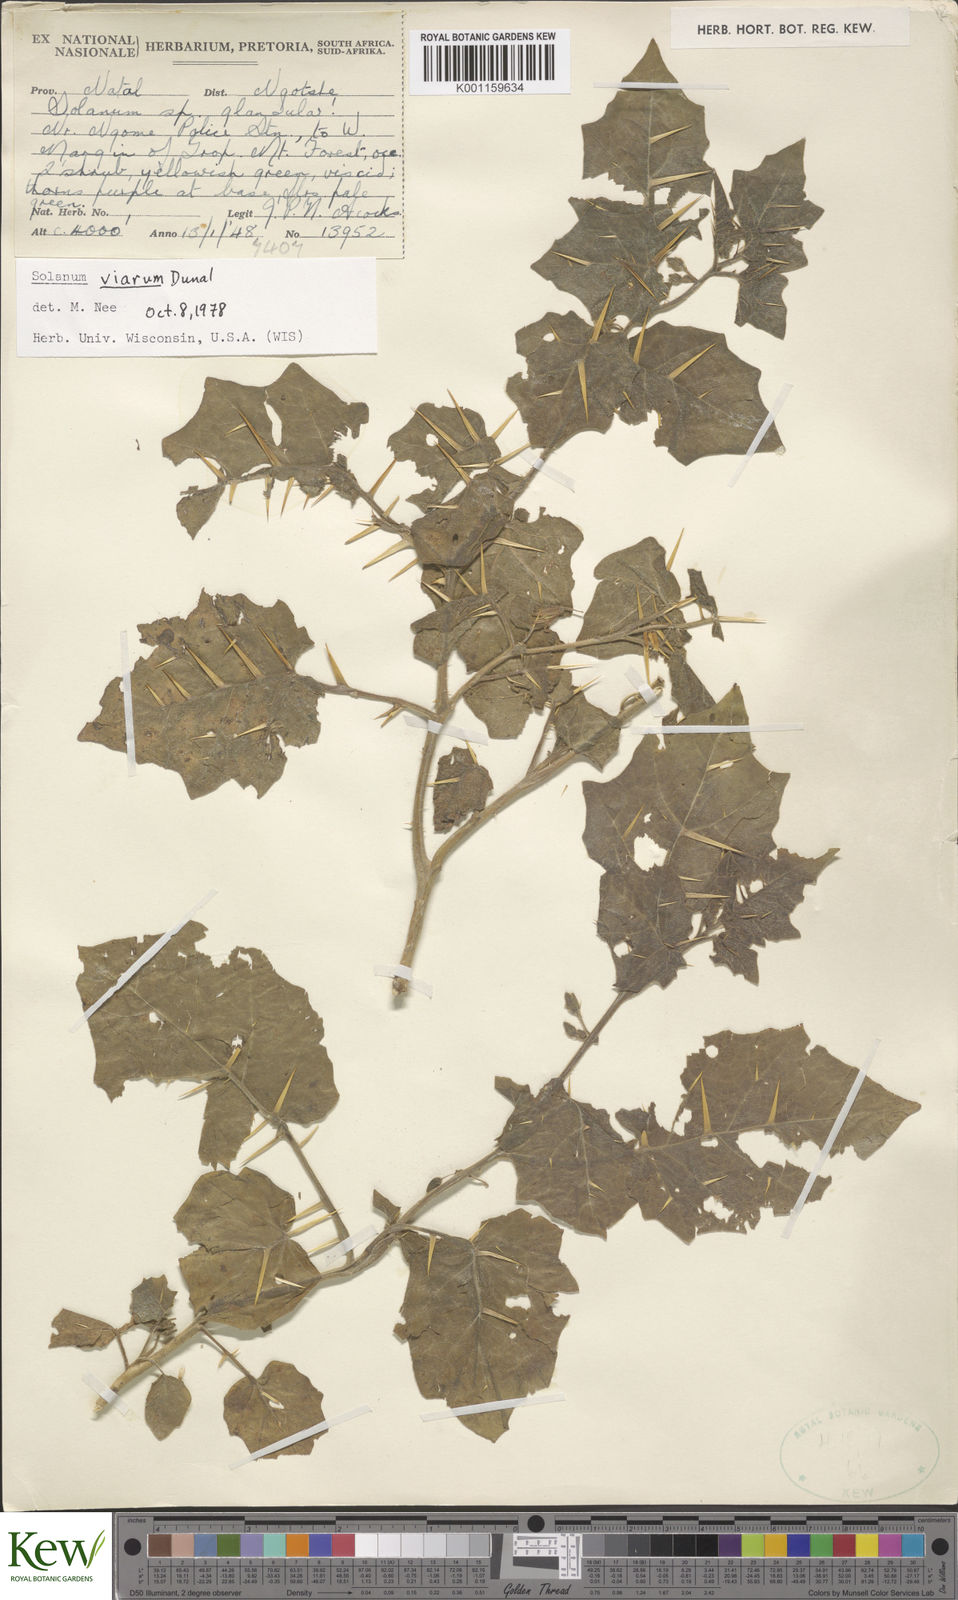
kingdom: Plantae
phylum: Tracheophyta
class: Magnoliopsida
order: Solanales
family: Solanaceae
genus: Solanum
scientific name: Solanum viarum
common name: Tropical soda apple
